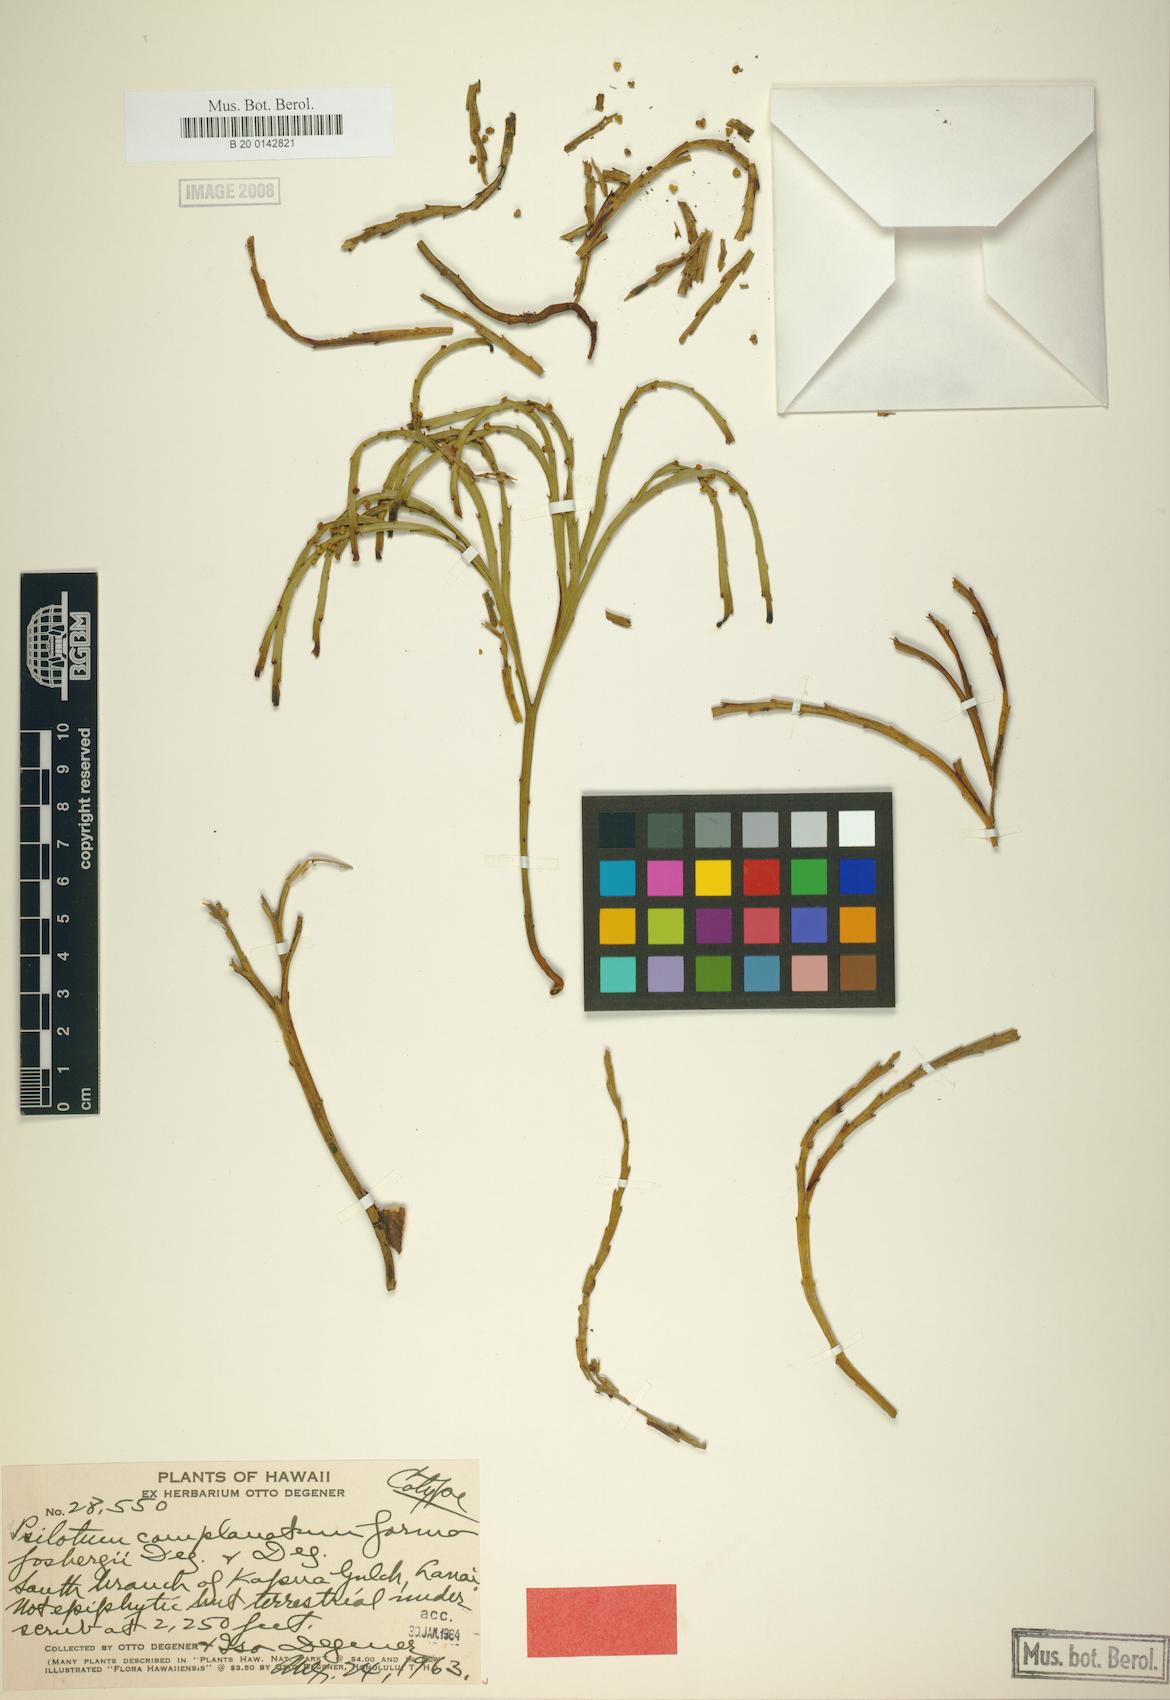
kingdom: Plantae
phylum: Tracheophyta
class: Polypodiopsida
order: Psilotales
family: Psilotaceae
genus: Psilotum
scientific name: Psilotum complanatum
